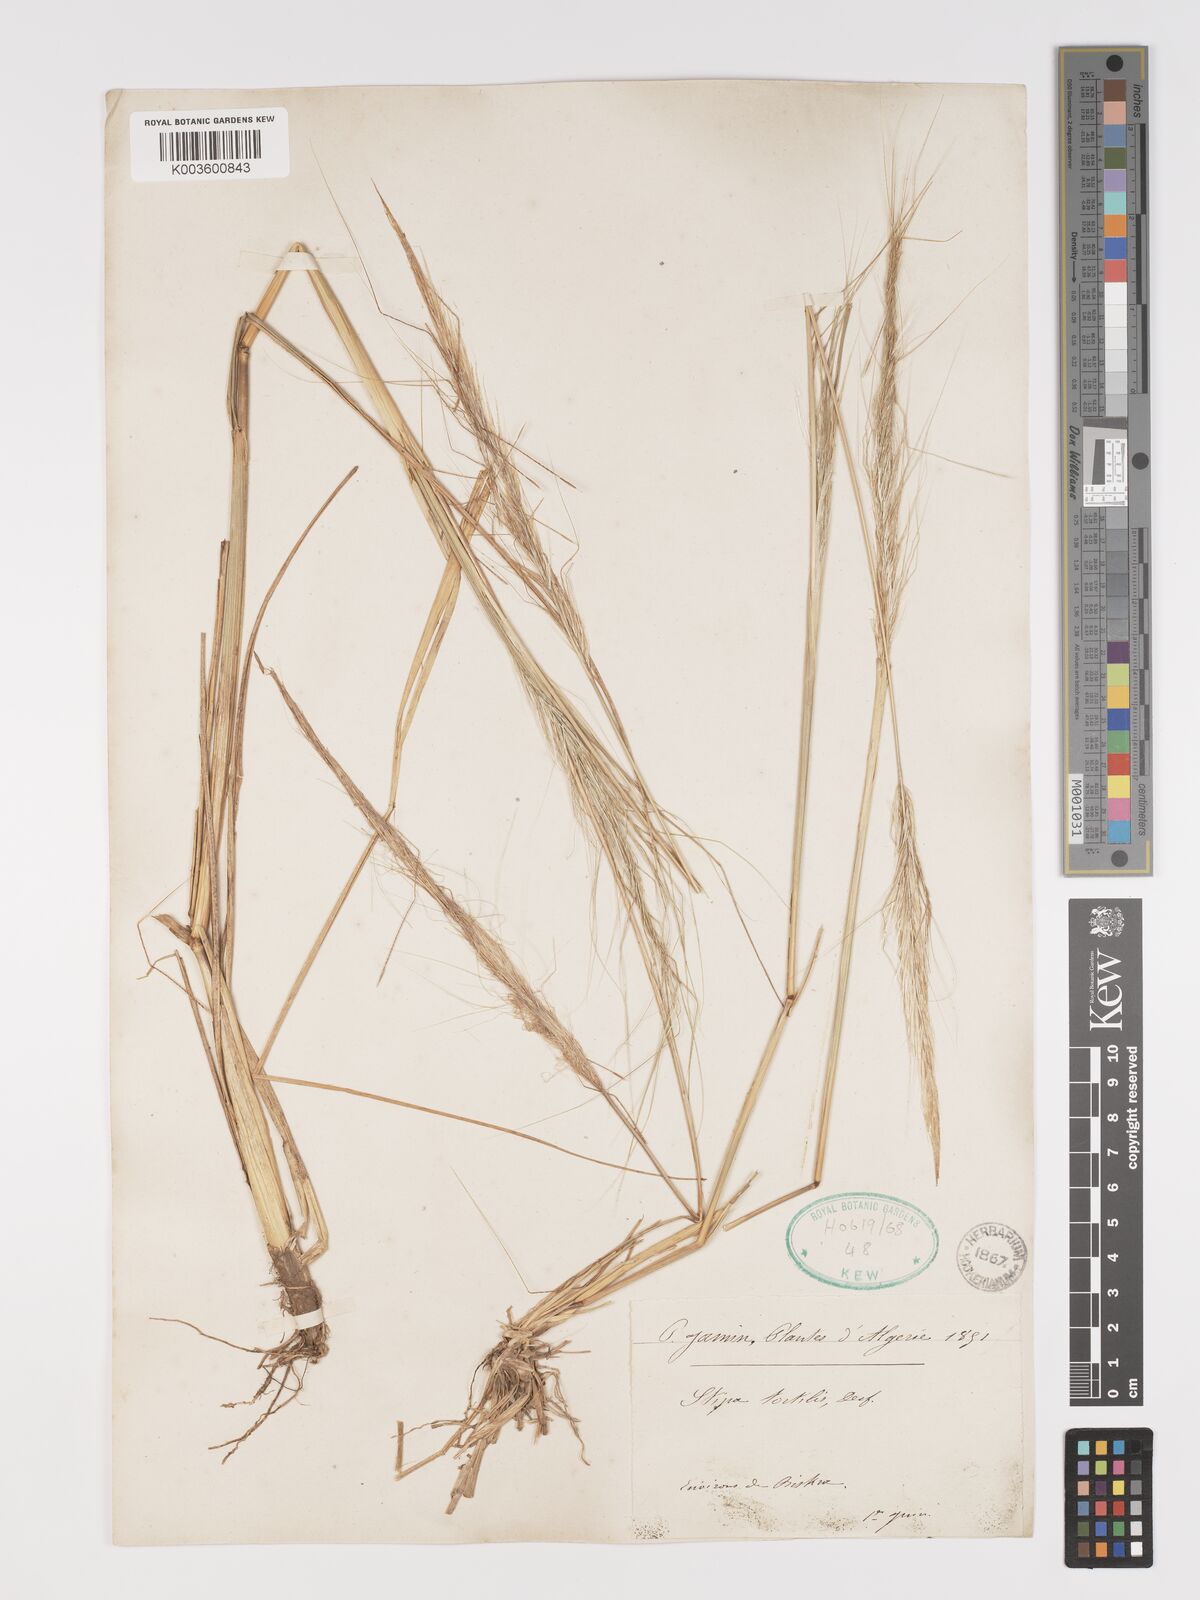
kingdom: Plantae
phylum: Tracheophyta
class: Liliopsida
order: Poales
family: Poaceae
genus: Stipellula
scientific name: Stipellula capensis
